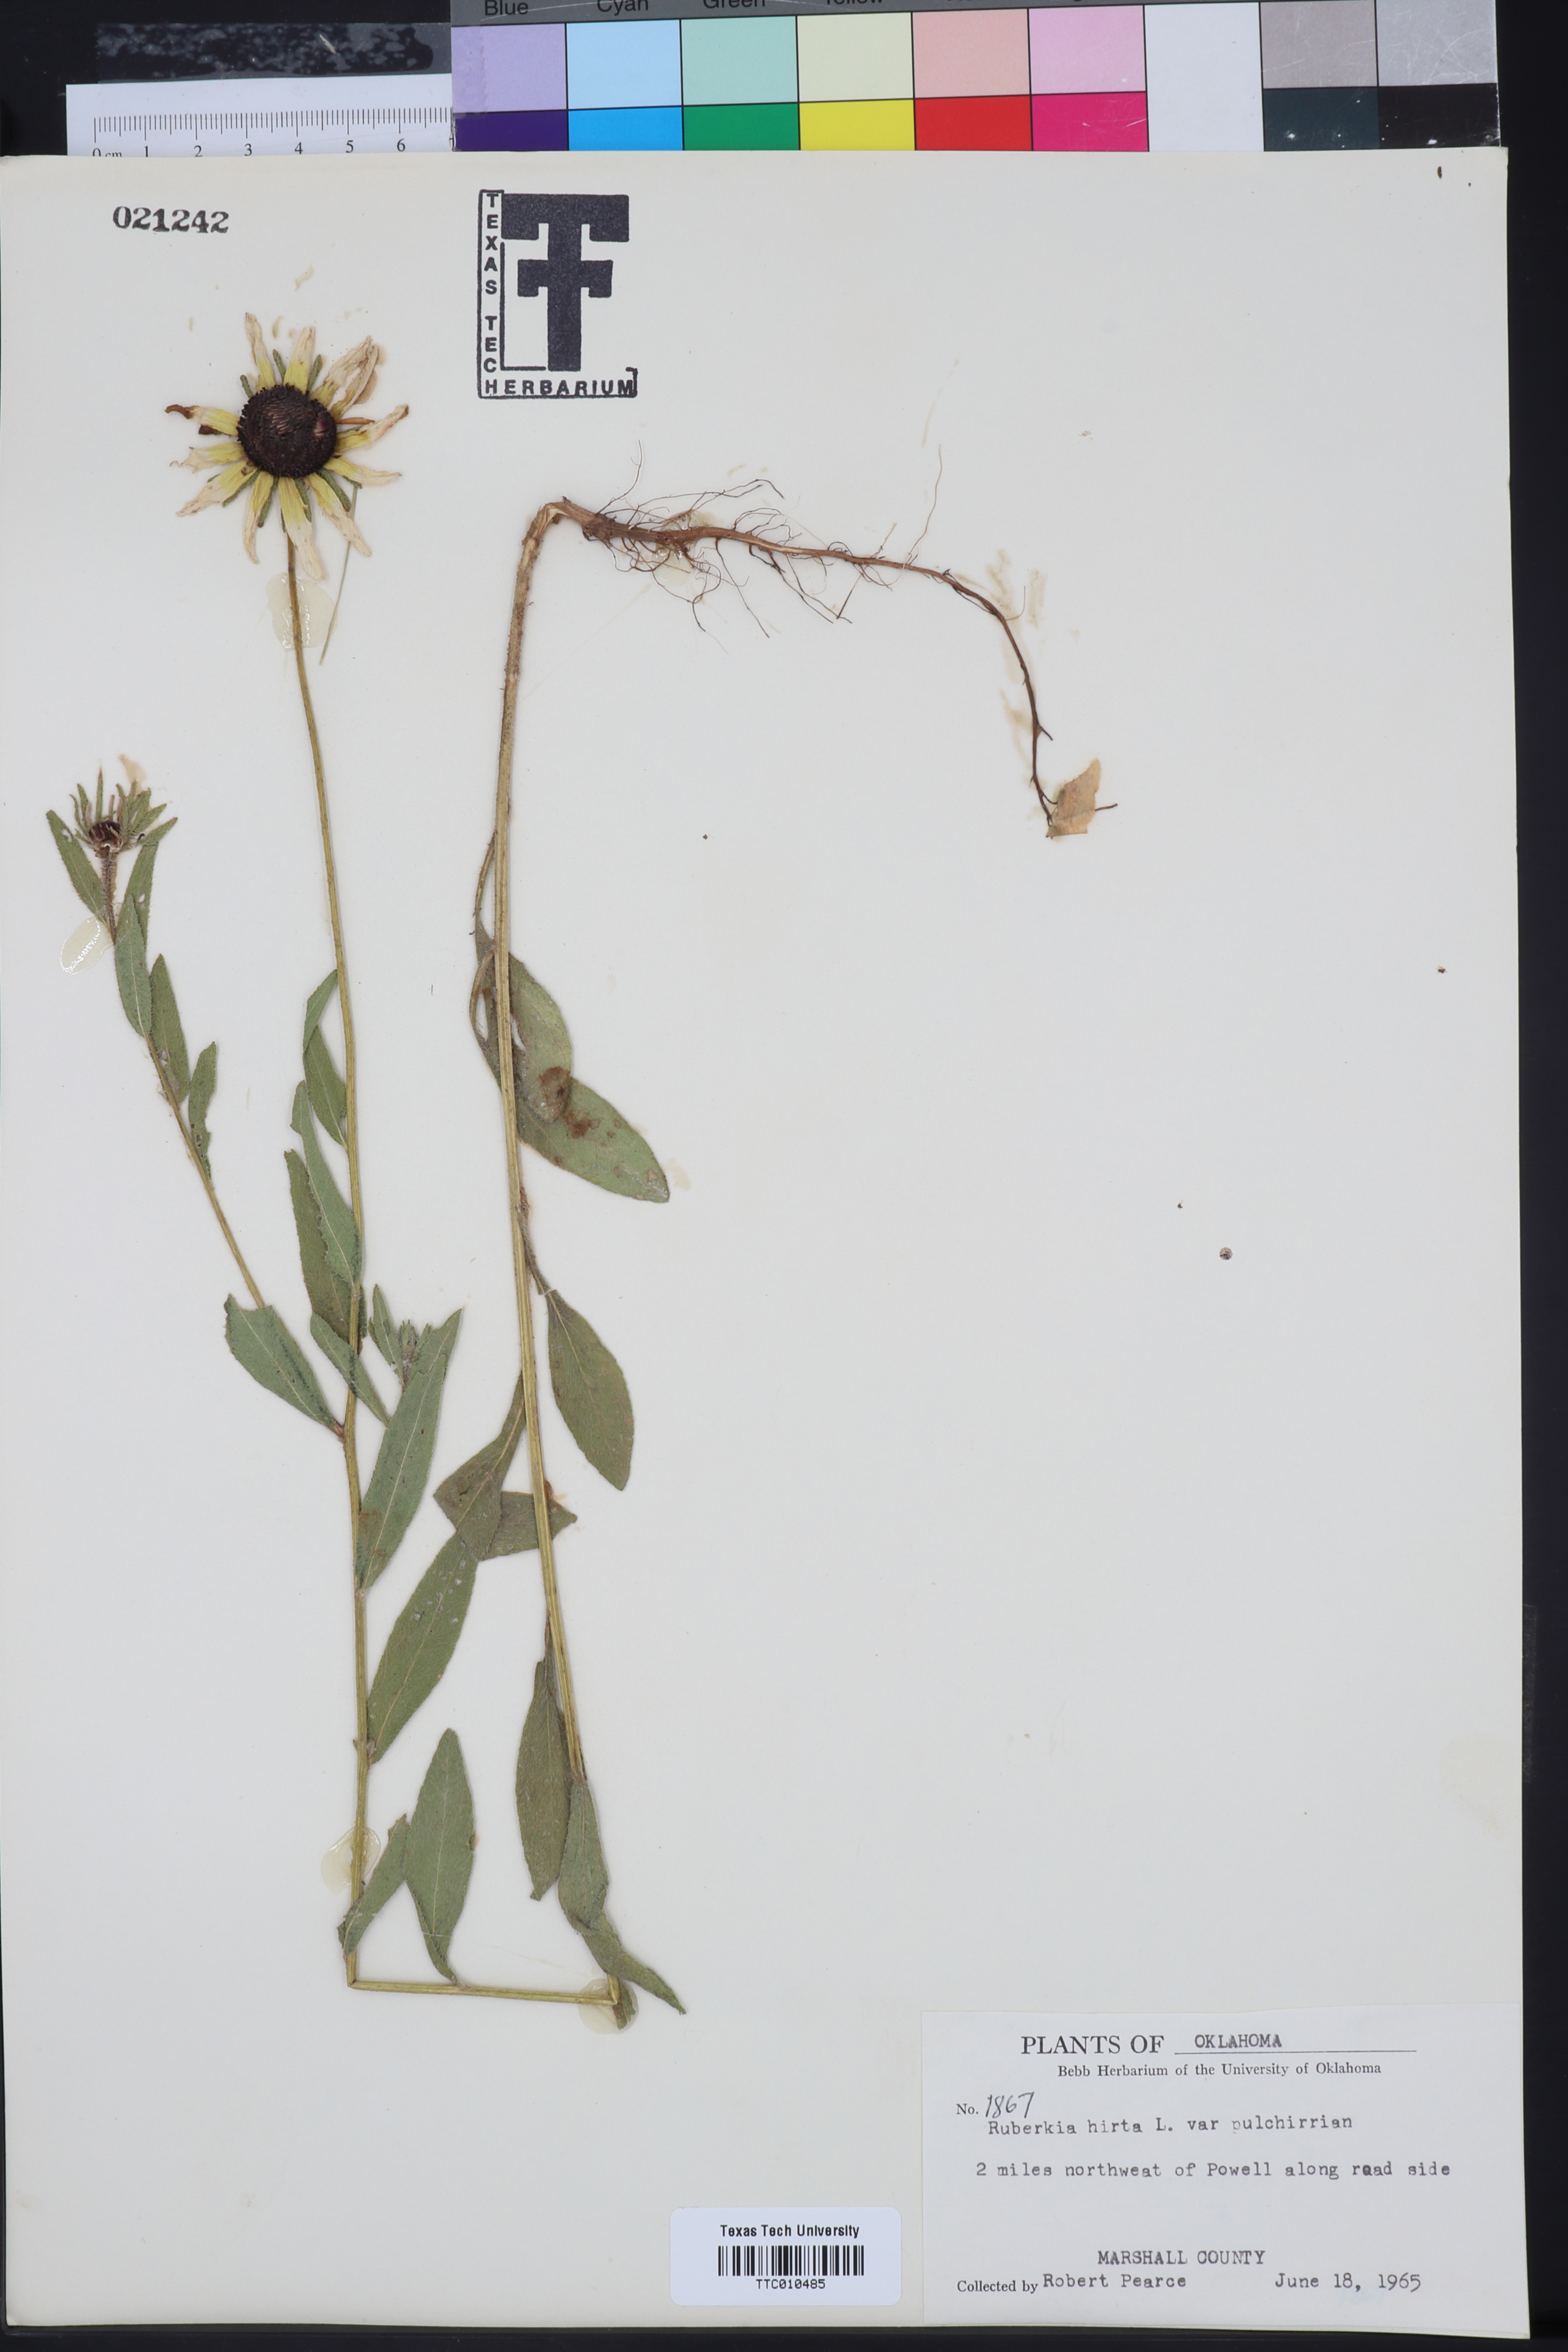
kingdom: Plantae
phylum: Tracheophyta
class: Magnoliopsida
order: Asterales
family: Asteraceae
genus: Rudbeckia
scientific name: Rudbeckia hirta
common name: Black-eyed-susan
